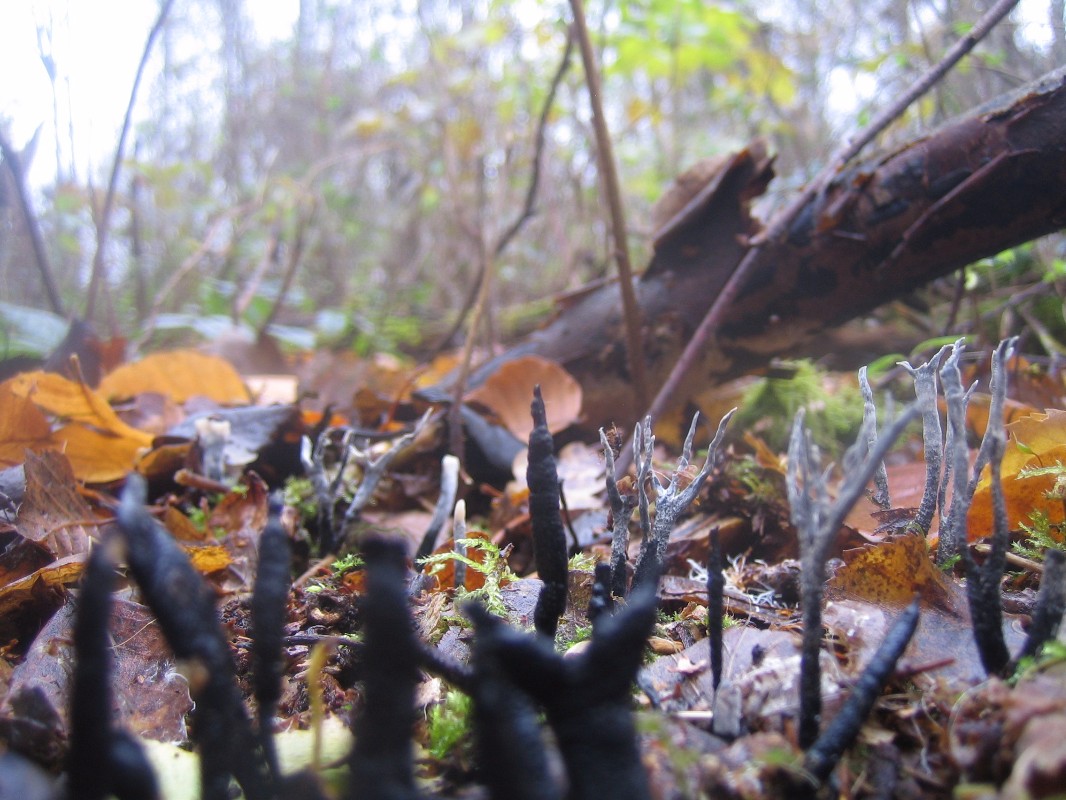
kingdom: Fungi
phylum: Ascomycota
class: Sordariomycetes
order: Xylariales
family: Xylariaceae
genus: Xylaria
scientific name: Xylaria hypoxylon
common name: grenet stødsvamp
